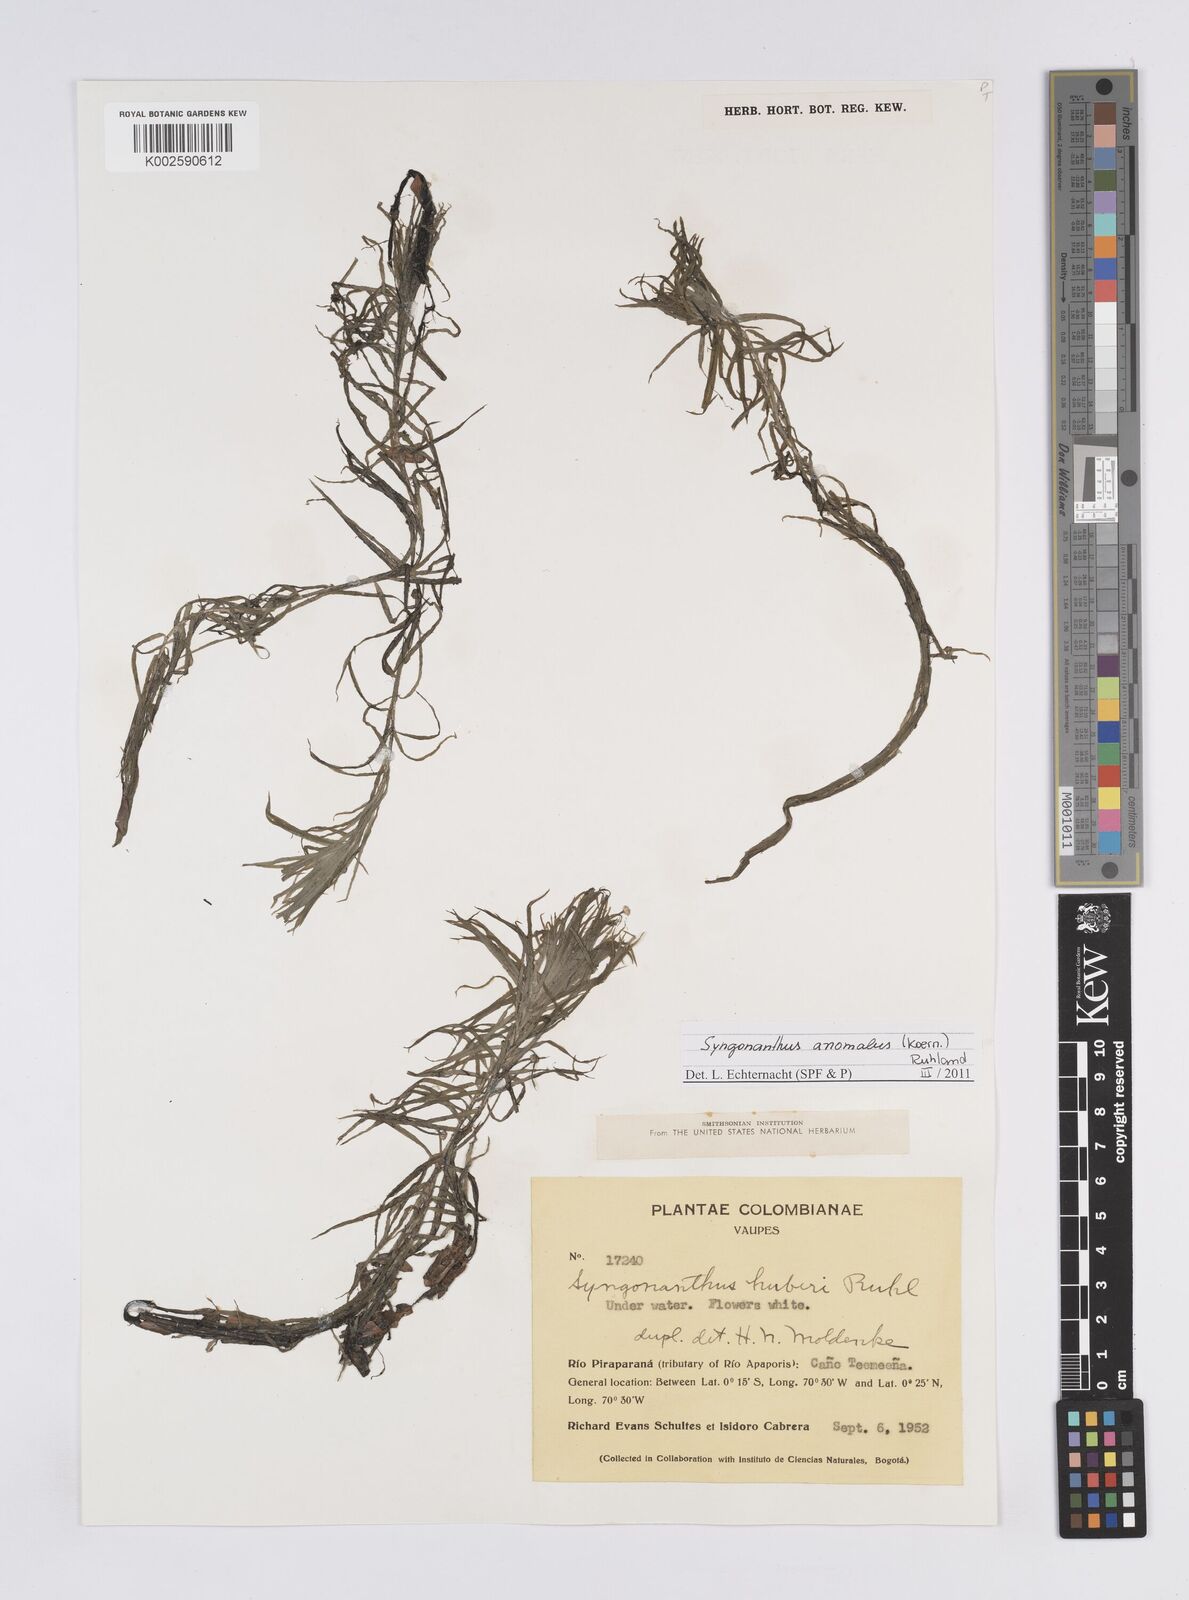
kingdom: Plantae
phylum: Tracheophyta
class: Liliopsida
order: Poales
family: Eriocaulaceae
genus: Syngonanthus
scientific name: Syngonanthus anomalus
